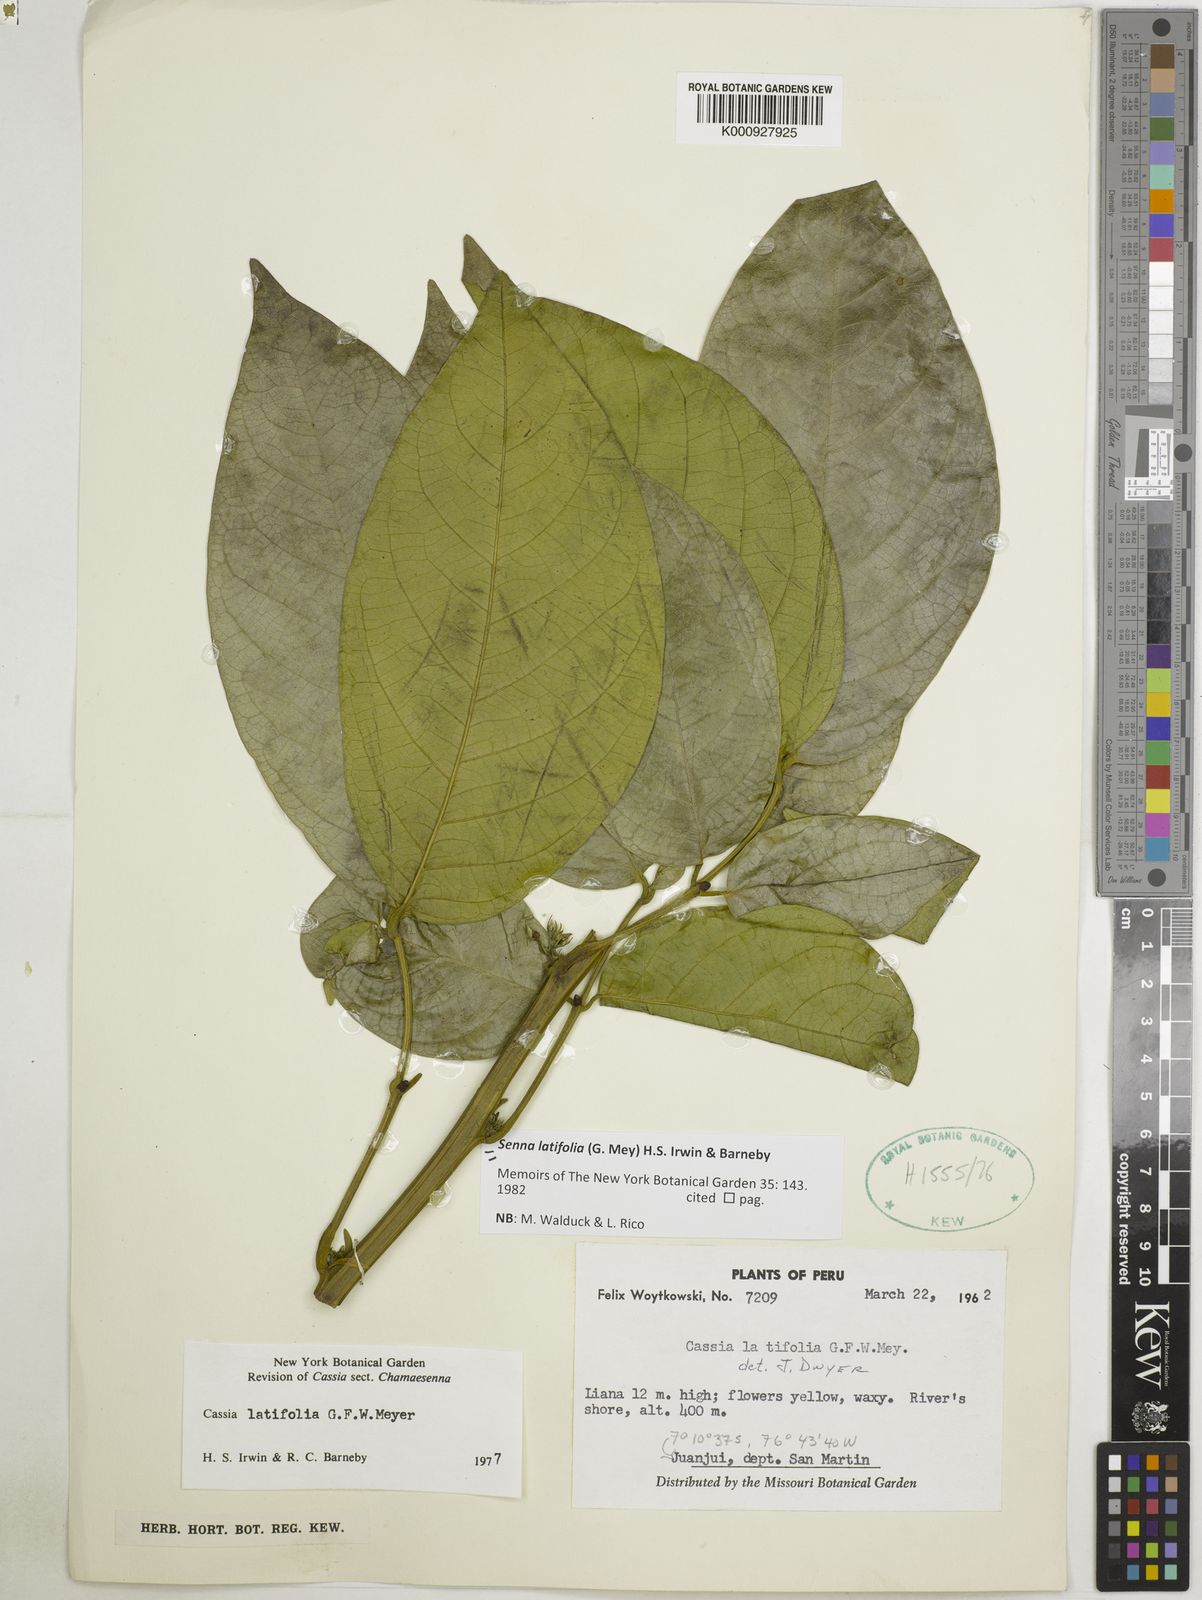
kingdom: Plantae
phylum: Tracheophyta
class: Magnoliopsida
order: Fabales
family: Fabaceae
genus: Senna
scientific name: Senna latifolia
